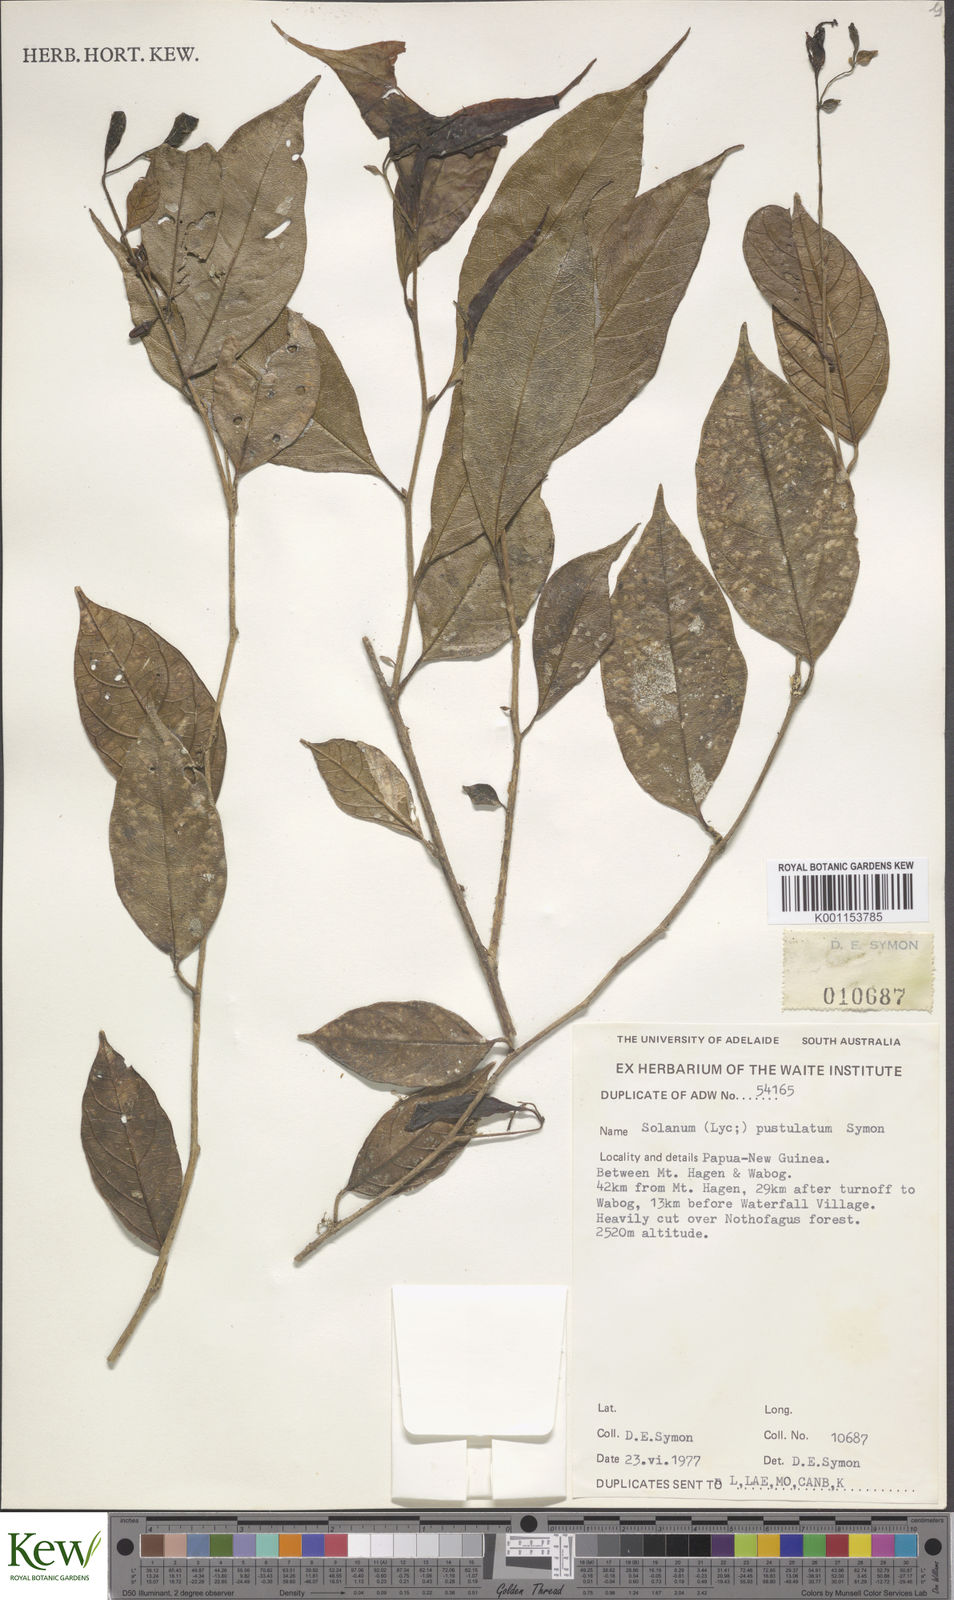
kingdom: Plantae
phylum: Tracheophyta
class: Magnoliopsida
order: Solanales
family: Solanaceae
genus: Lycianthes
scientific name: Lycianthes rostellata
